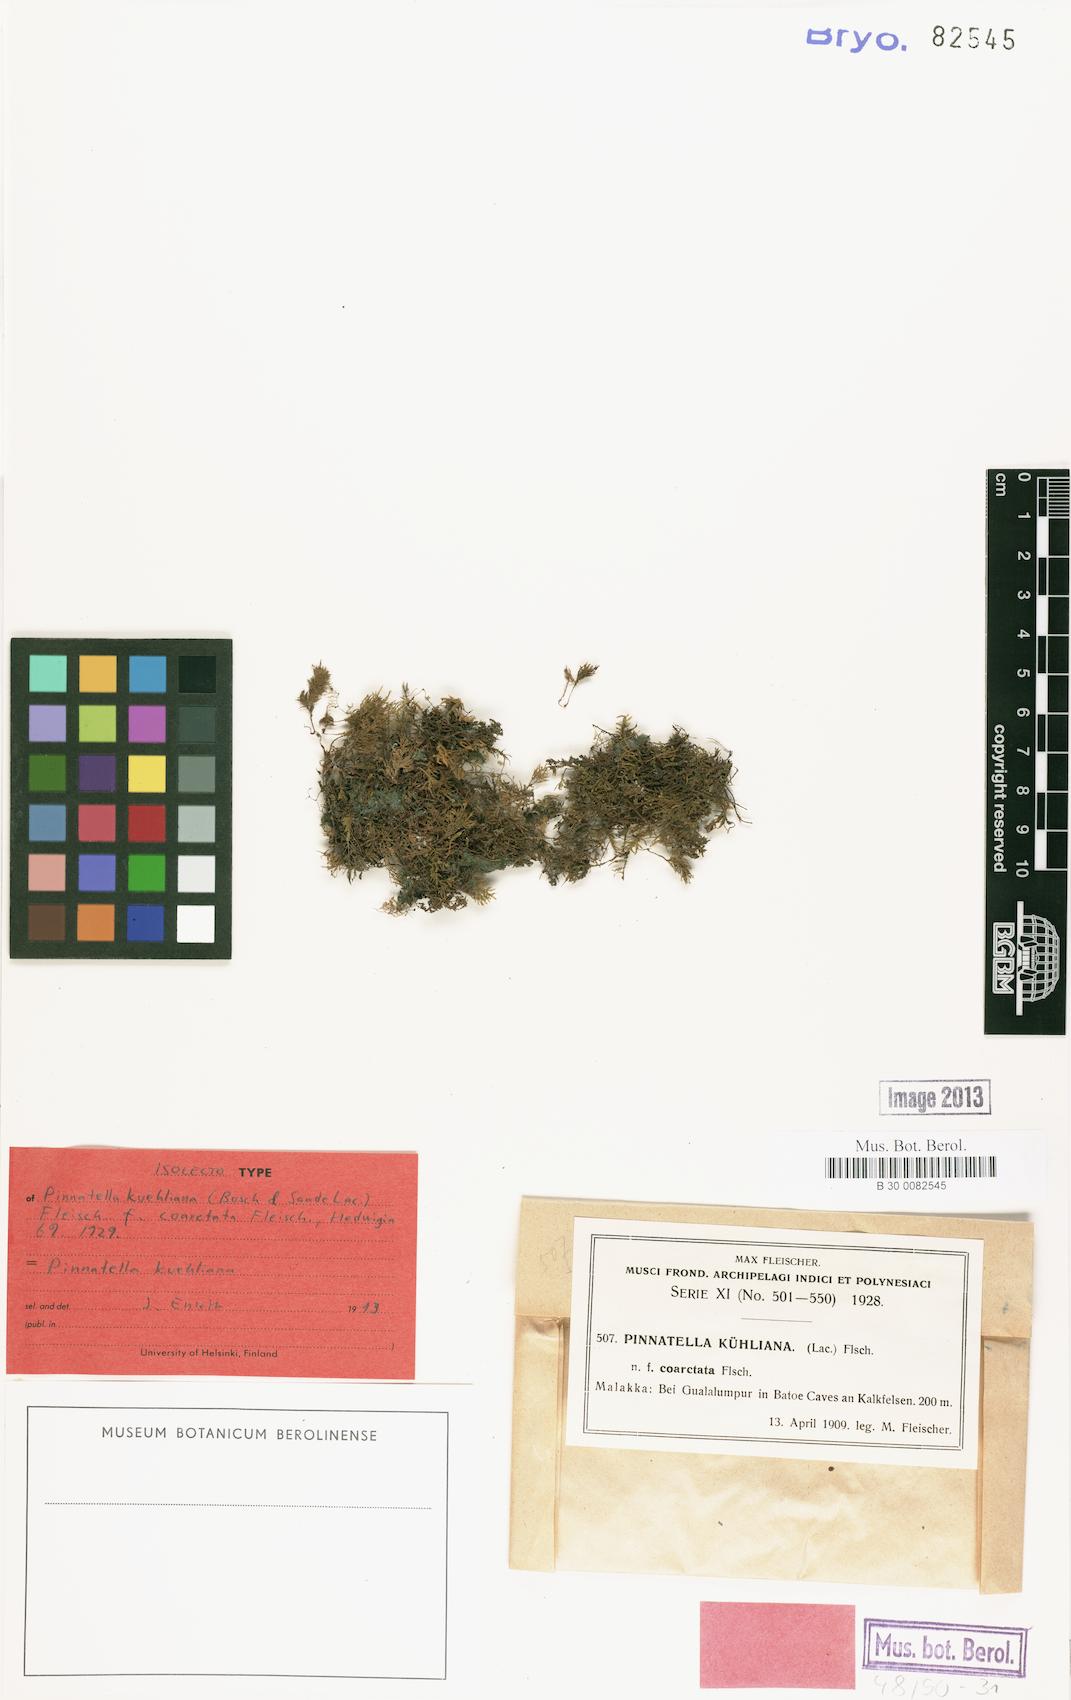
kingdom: Plantae
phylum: Bryophyta
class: Bryopsida
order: Hypnales
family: Neckeraceae
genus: Pinnatella
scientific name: Pinnatella kuehliana
